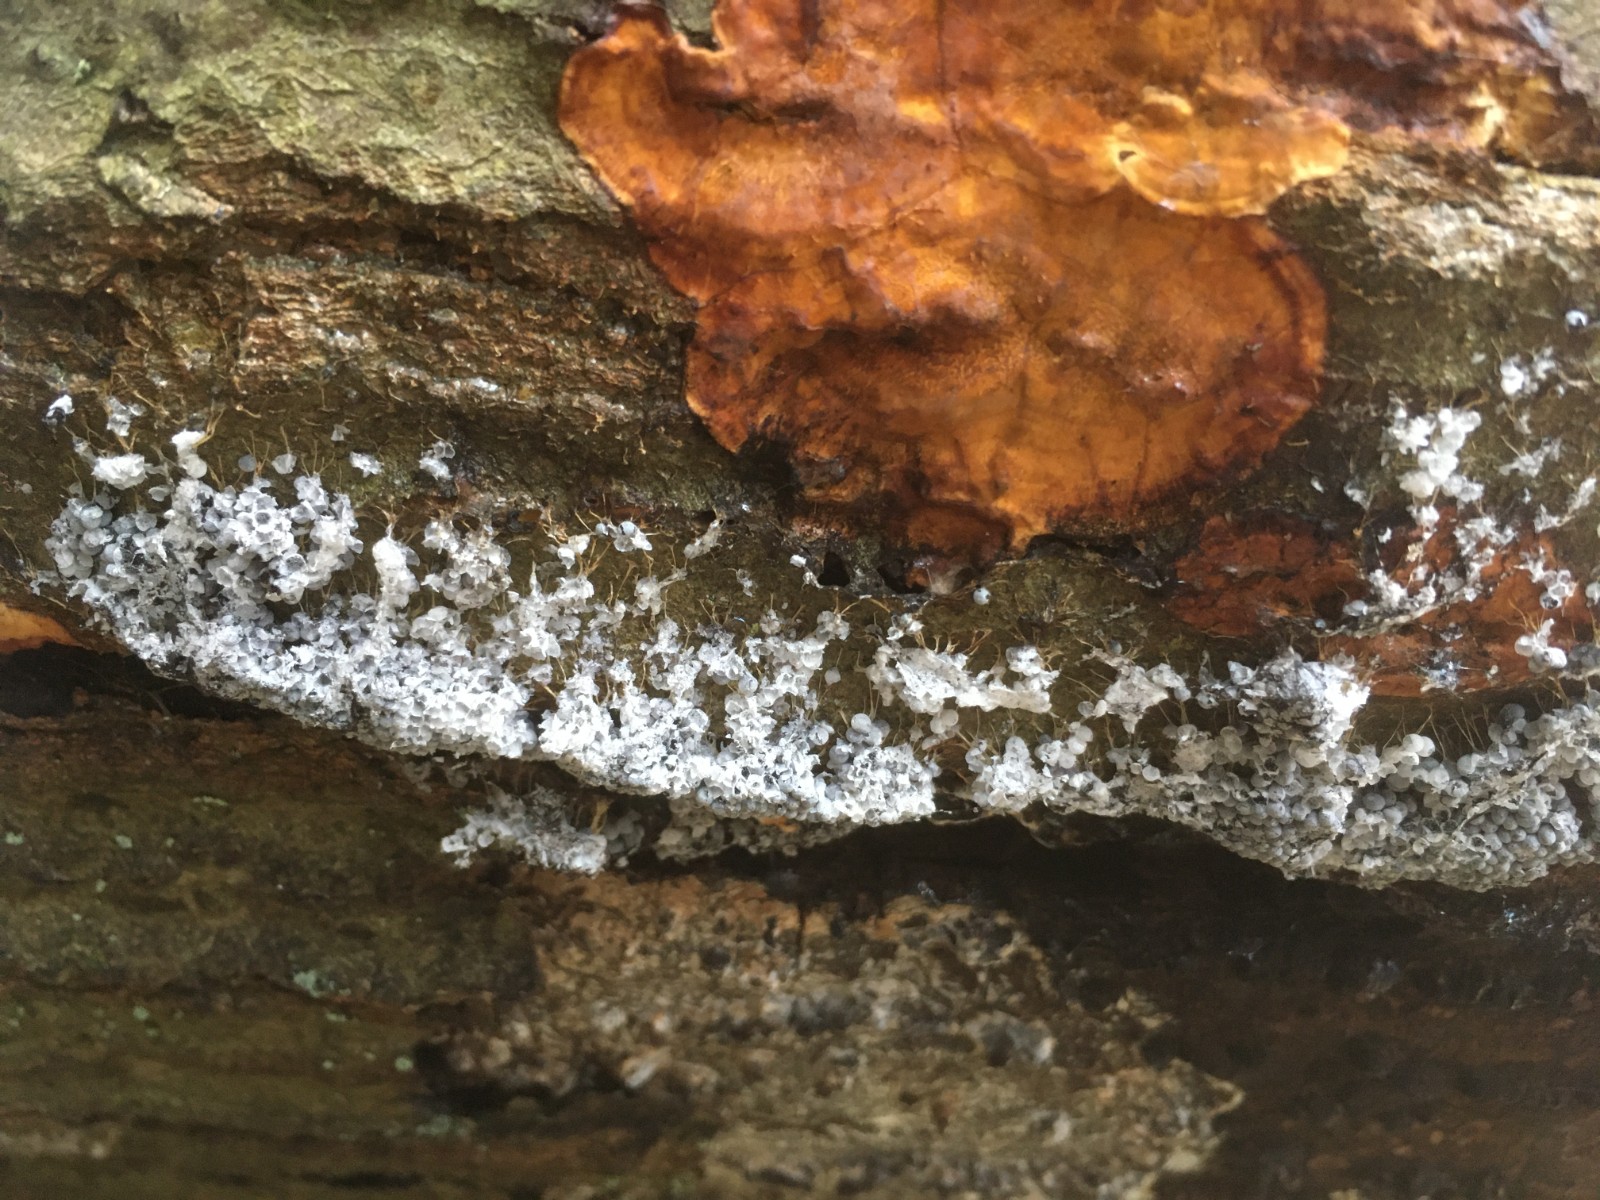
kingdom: Protozoa
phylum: Mycetozoa
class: Myxomycetes
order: Physarales
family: Physaraceae
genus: Badhamia
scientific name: Badhamia utricularis
